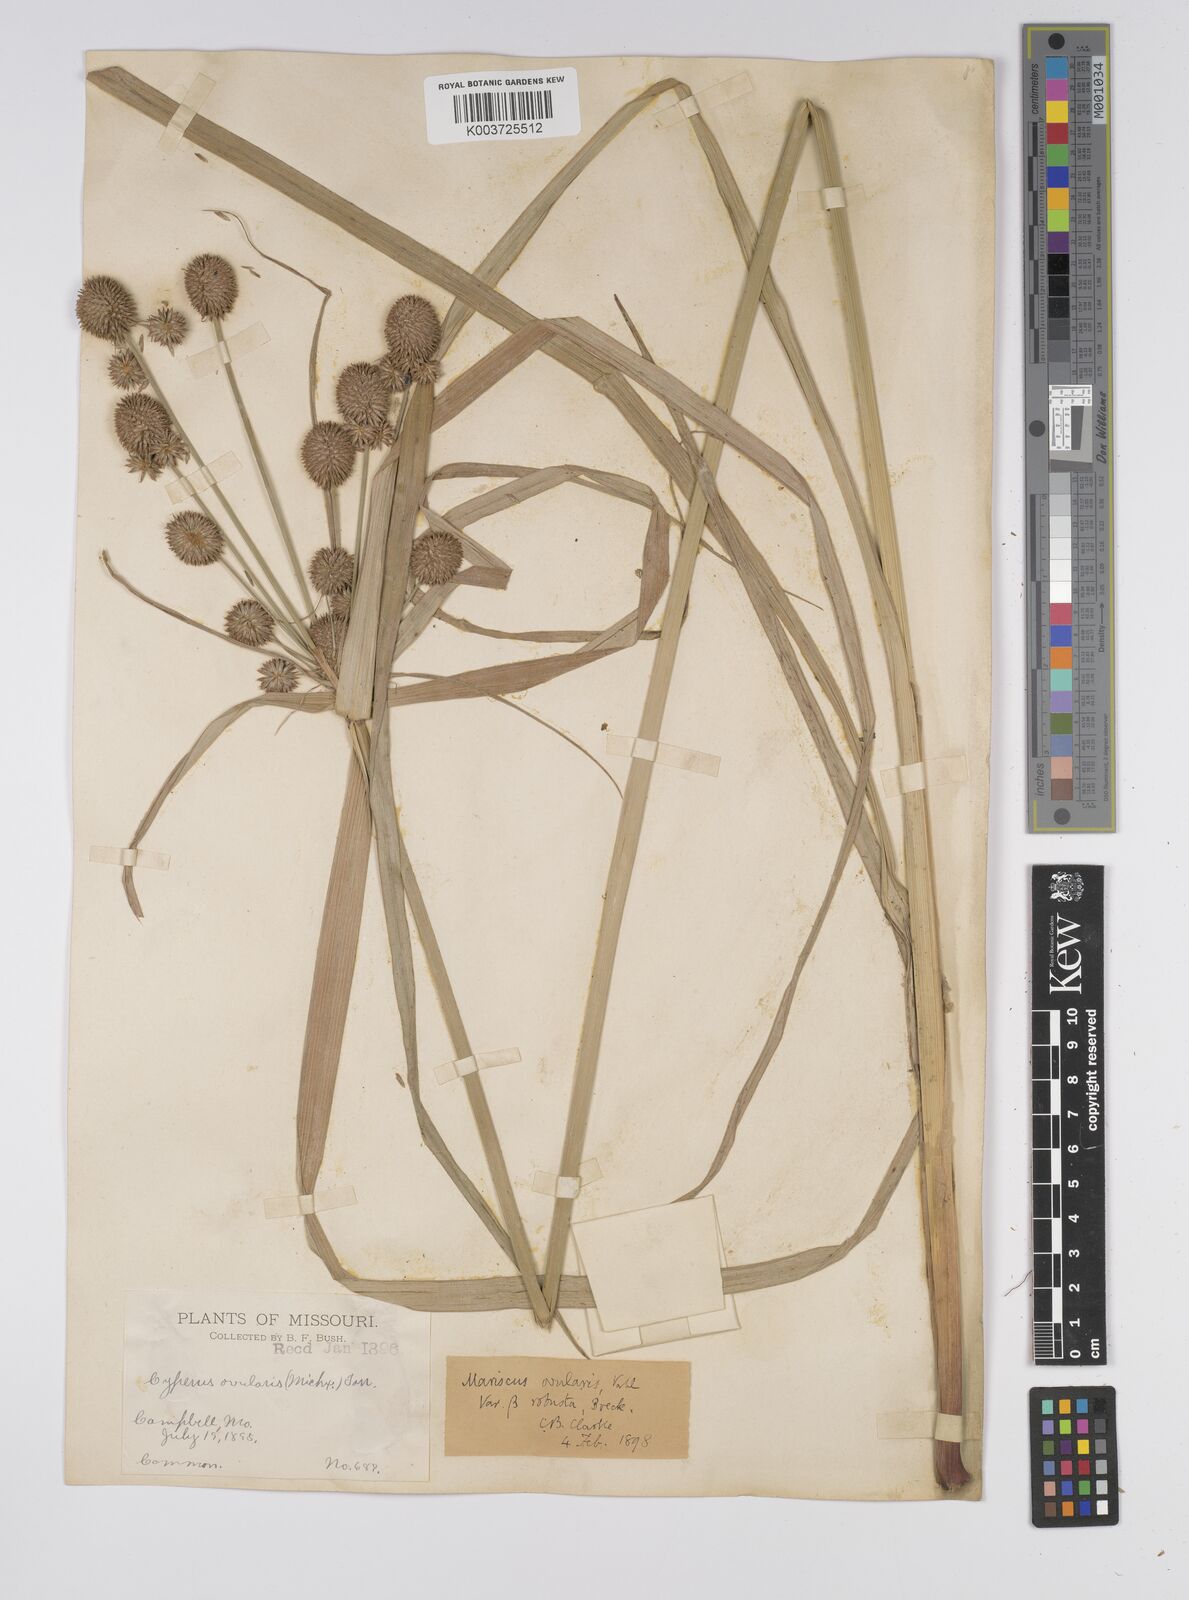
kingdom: Plantae
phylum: Tracheophyta
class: Liliopsida
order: Poales
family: Cyperaceae
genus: Cyperus
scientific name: Cyperus echinatus
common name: Teasel sedge
